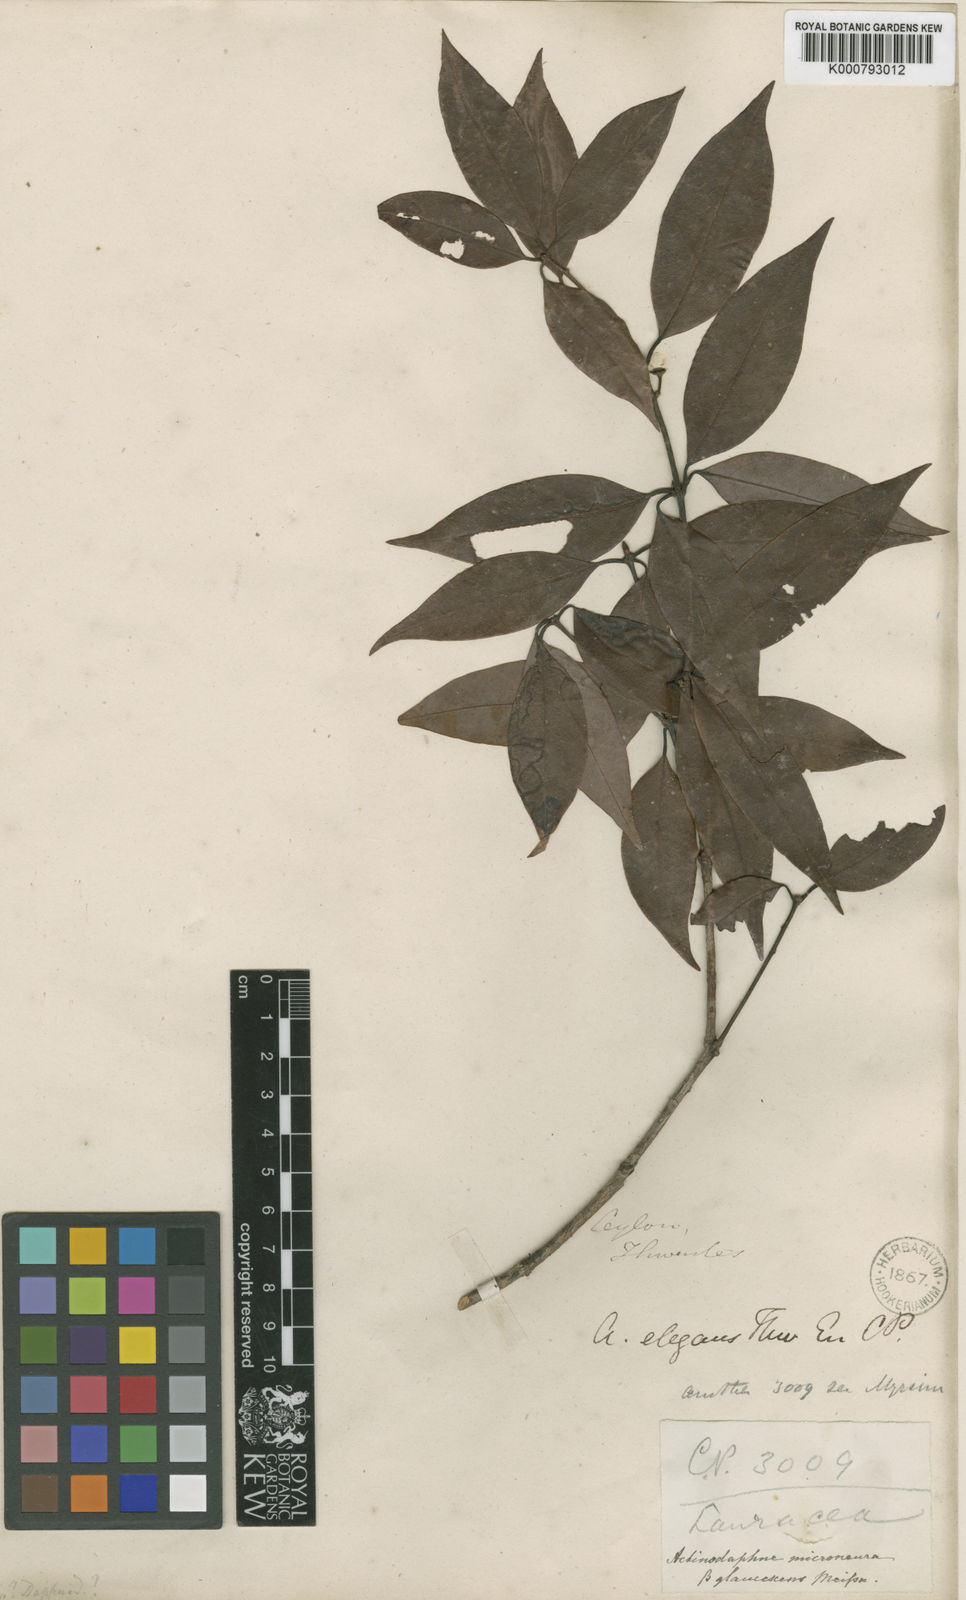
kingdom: Plantae
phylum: Tracheophyta
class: Magnoliopsida
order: Laurales
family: Lauraceae
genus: Actinodaphne
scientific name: Actinodaphne elegans
